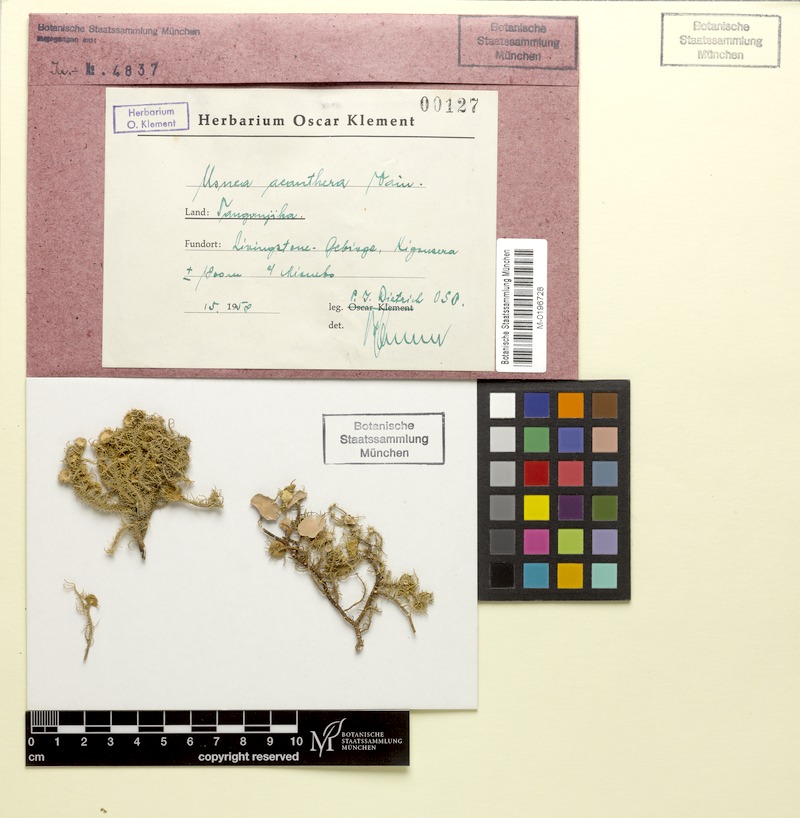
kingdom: Fungi
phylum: Ascomycota
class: Lecanoromycetes
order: Lecanorales
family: Parmeliaceae
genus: Usnea
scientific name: Usnea acanthera
